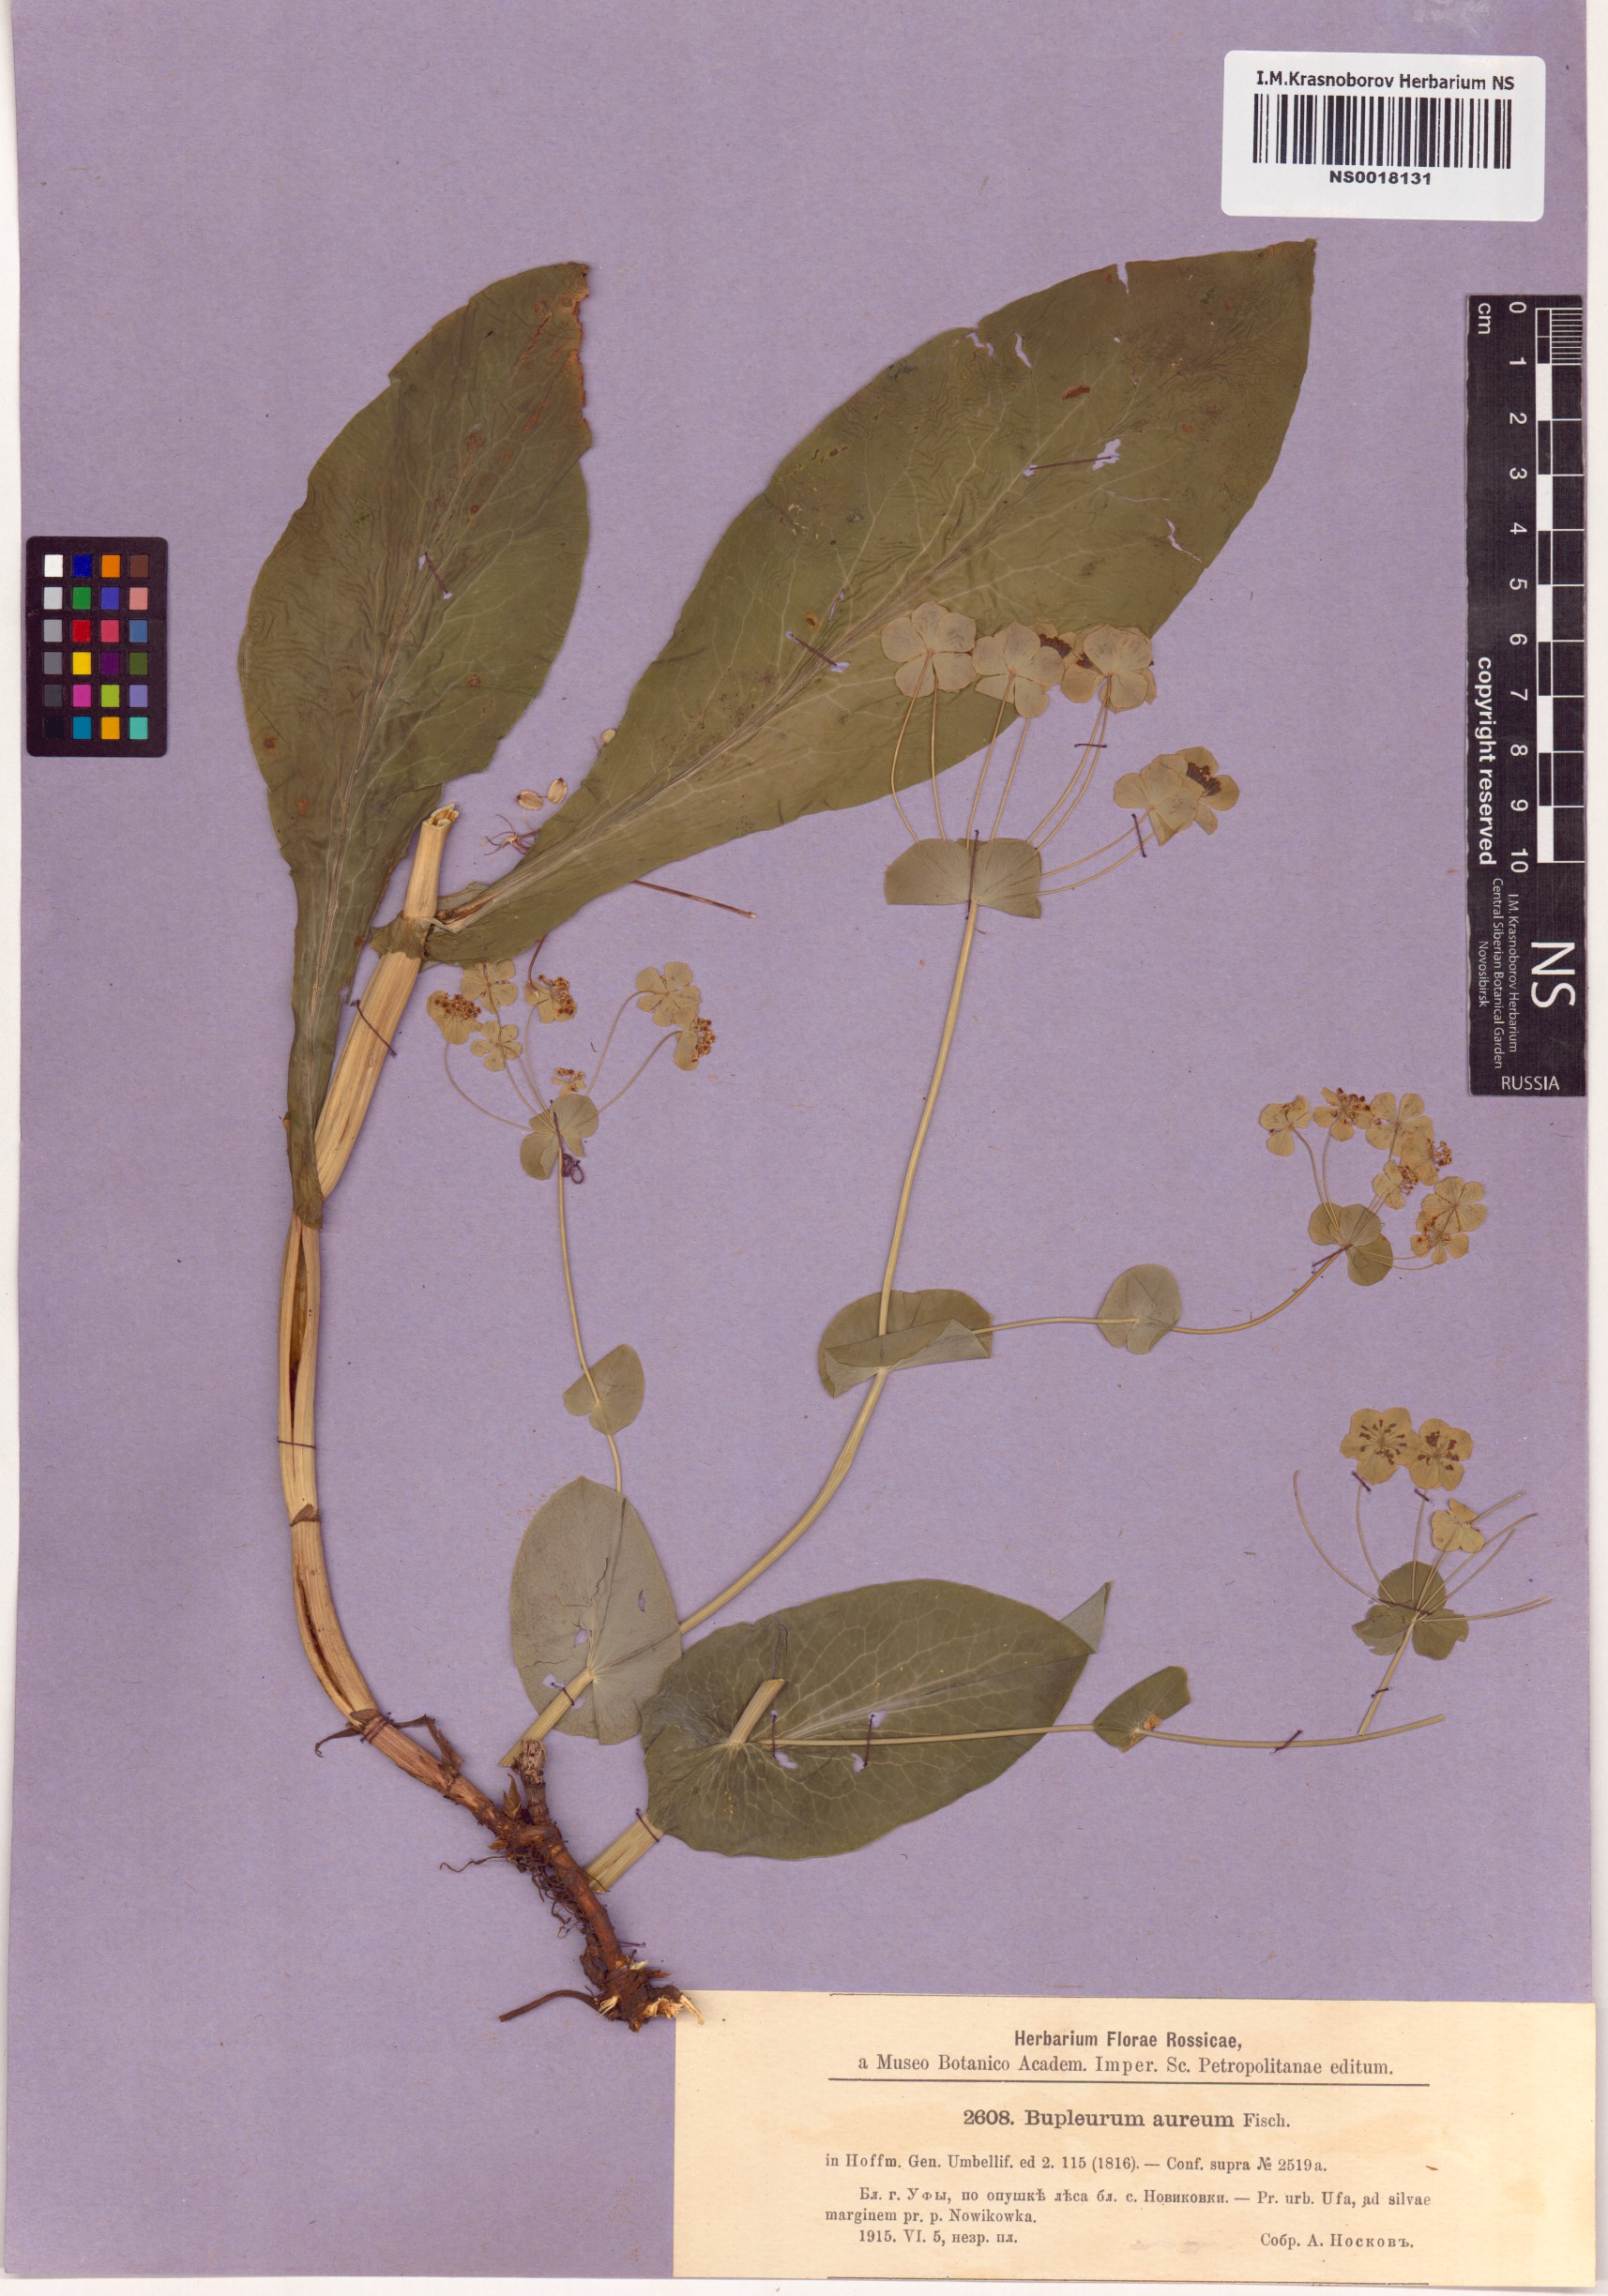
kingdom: Plantae
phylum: Tracheophyta
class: Magnoliopsida
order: Apiales
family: Apiaceae
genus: Bupleurum
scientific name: Bupleurum aureum
